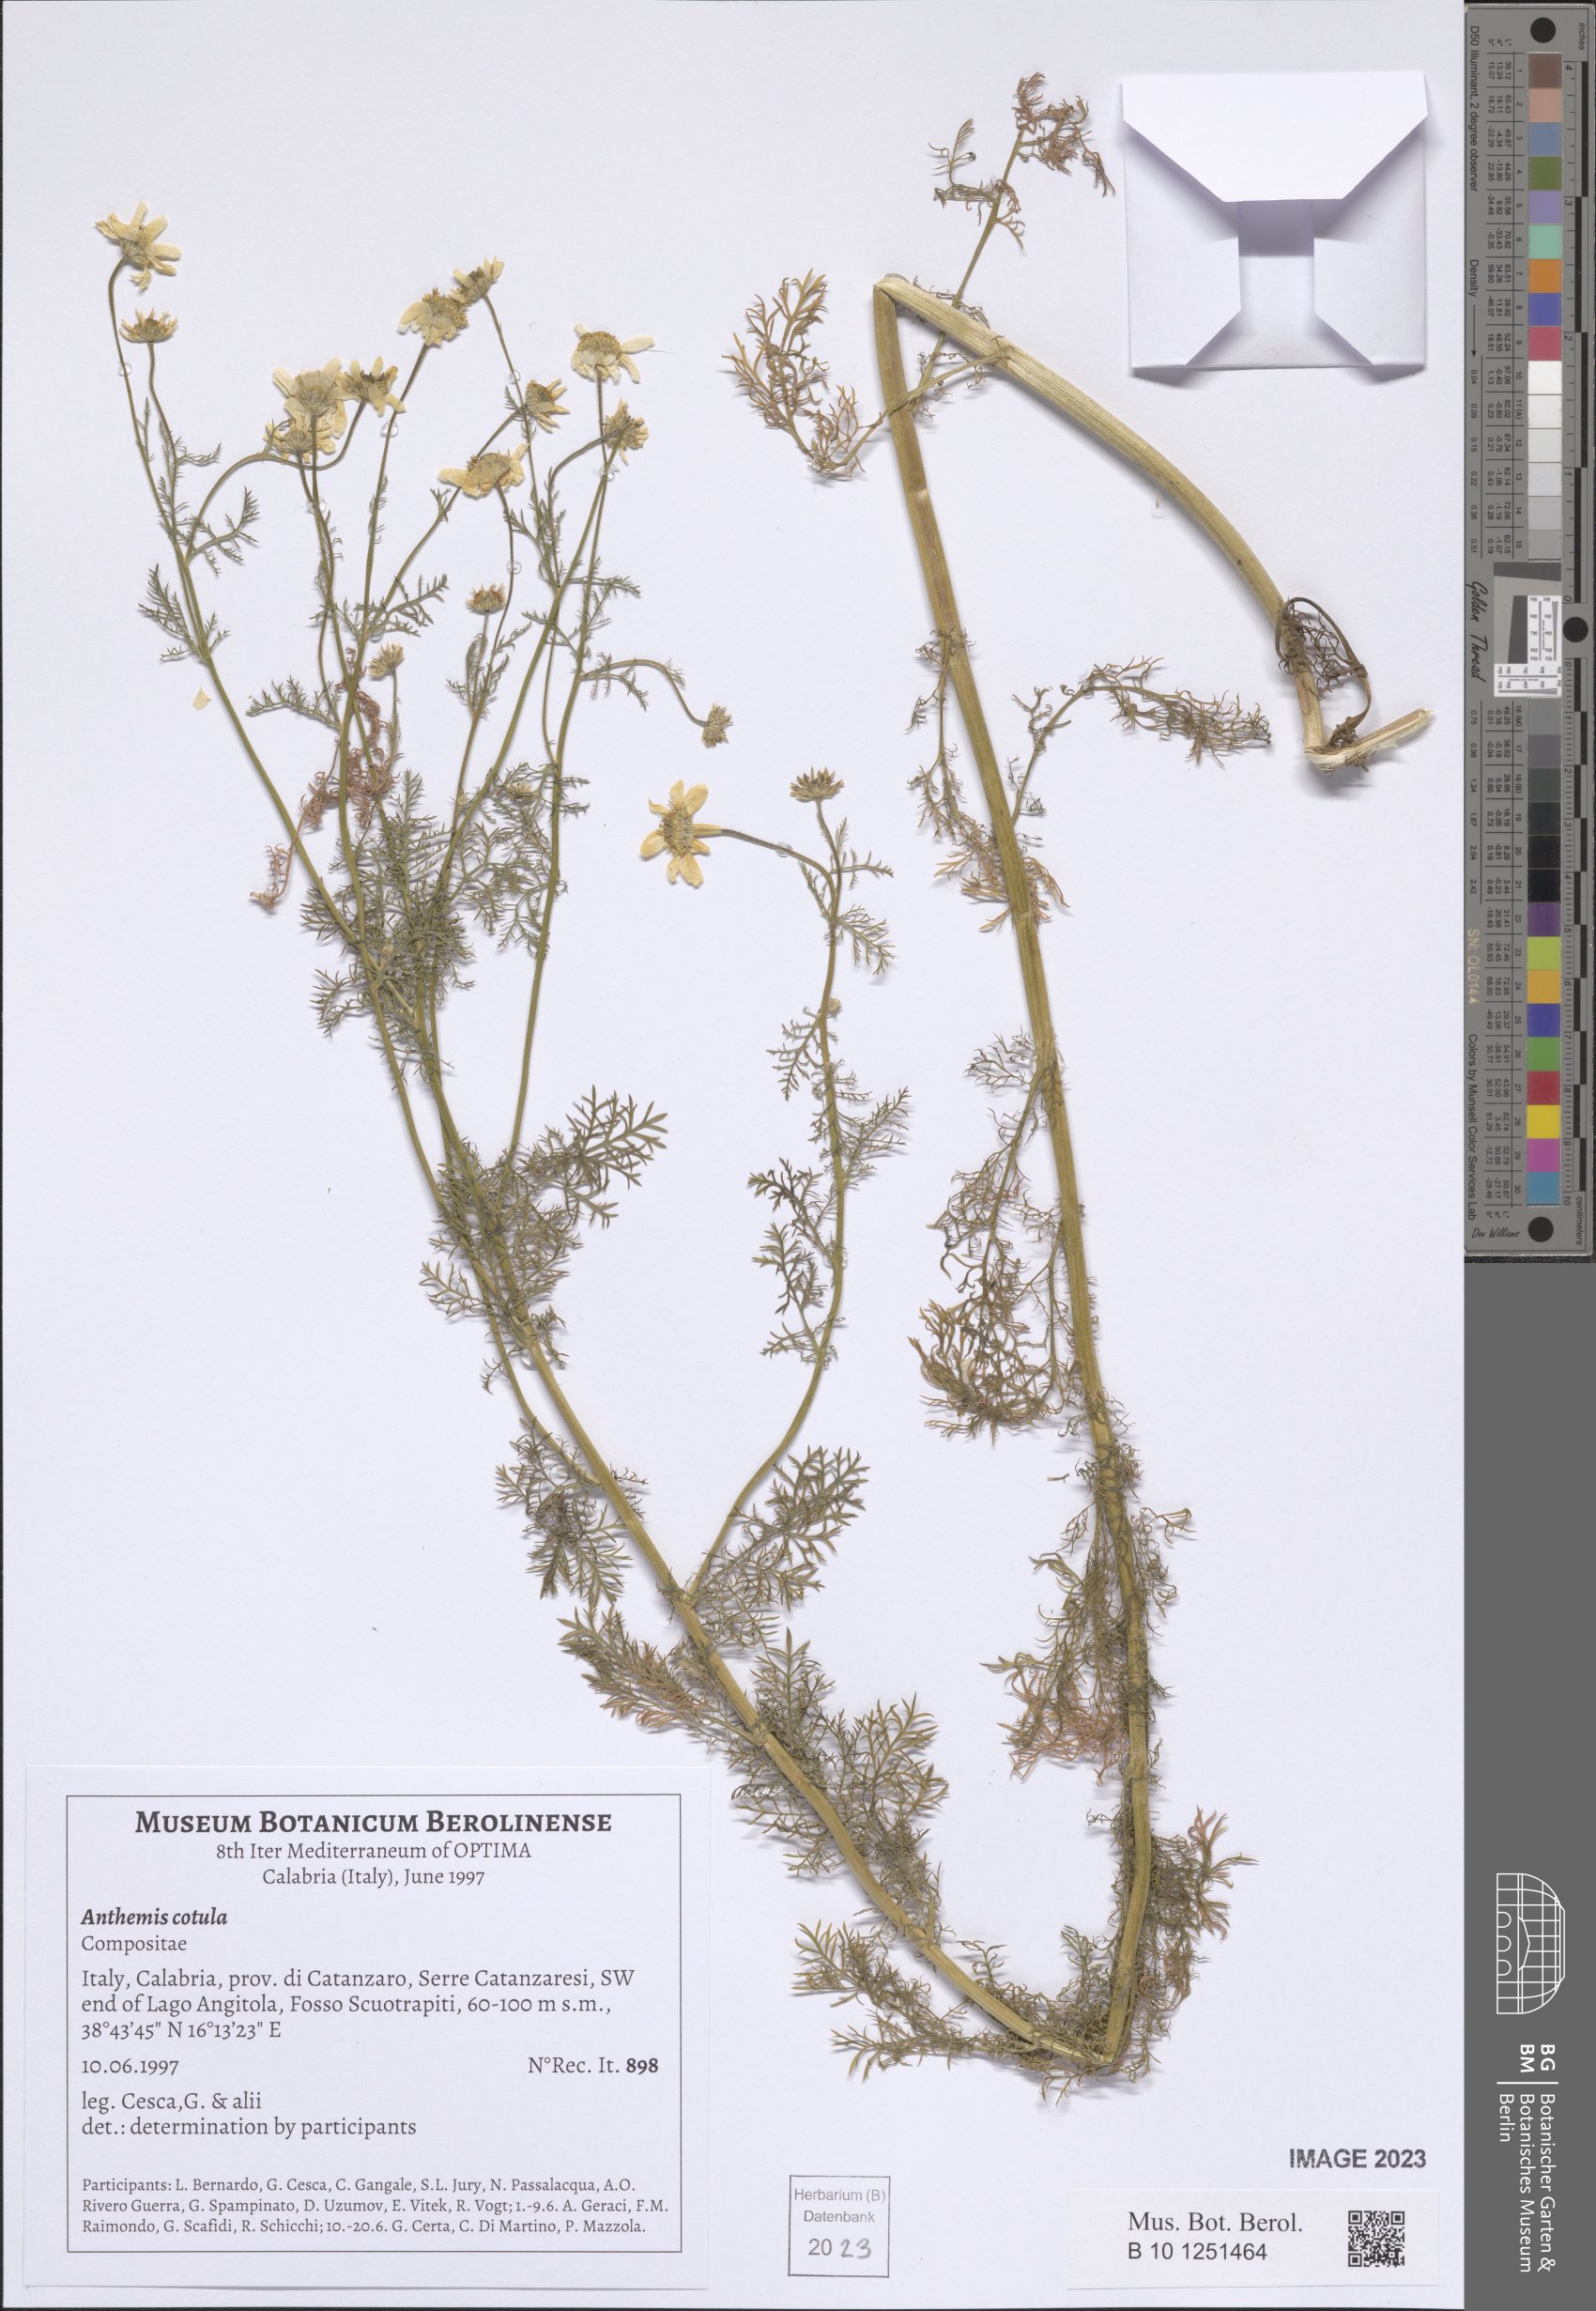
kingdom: Plantae
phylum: Tracheophyta
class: Magnoliopsida
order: Asterales
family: Asteraceae
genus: Anthemis
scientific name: Anthemis cotula
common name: Stinking chamomile
